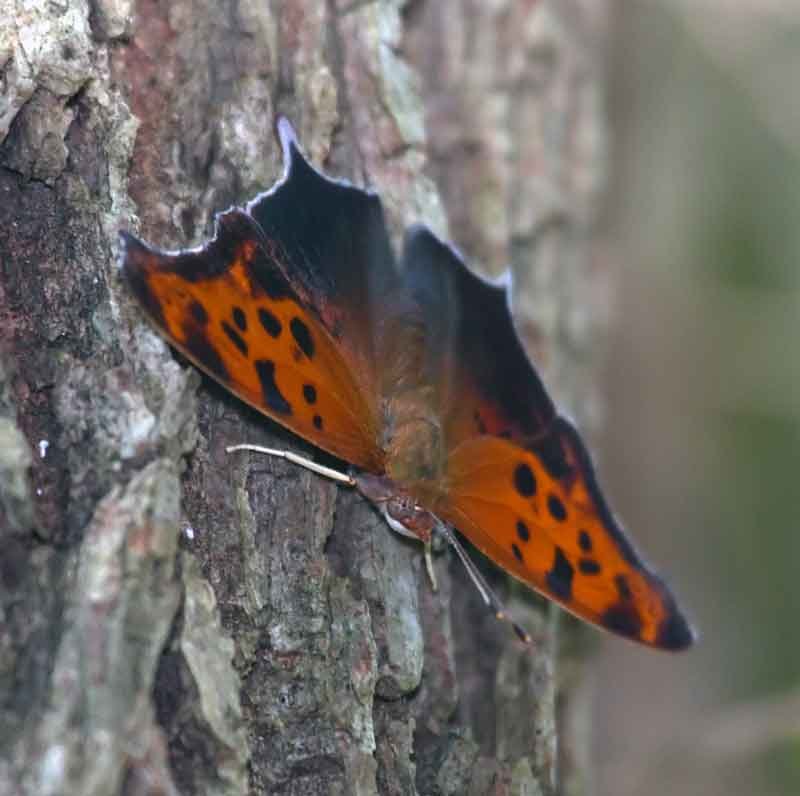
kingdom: Animalia
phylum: Arthropoda
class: Insecta
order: Lepidoptera
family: Nymphalidae
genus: Polygonia
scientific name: Polygonia interrogationis
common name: Question Mark
